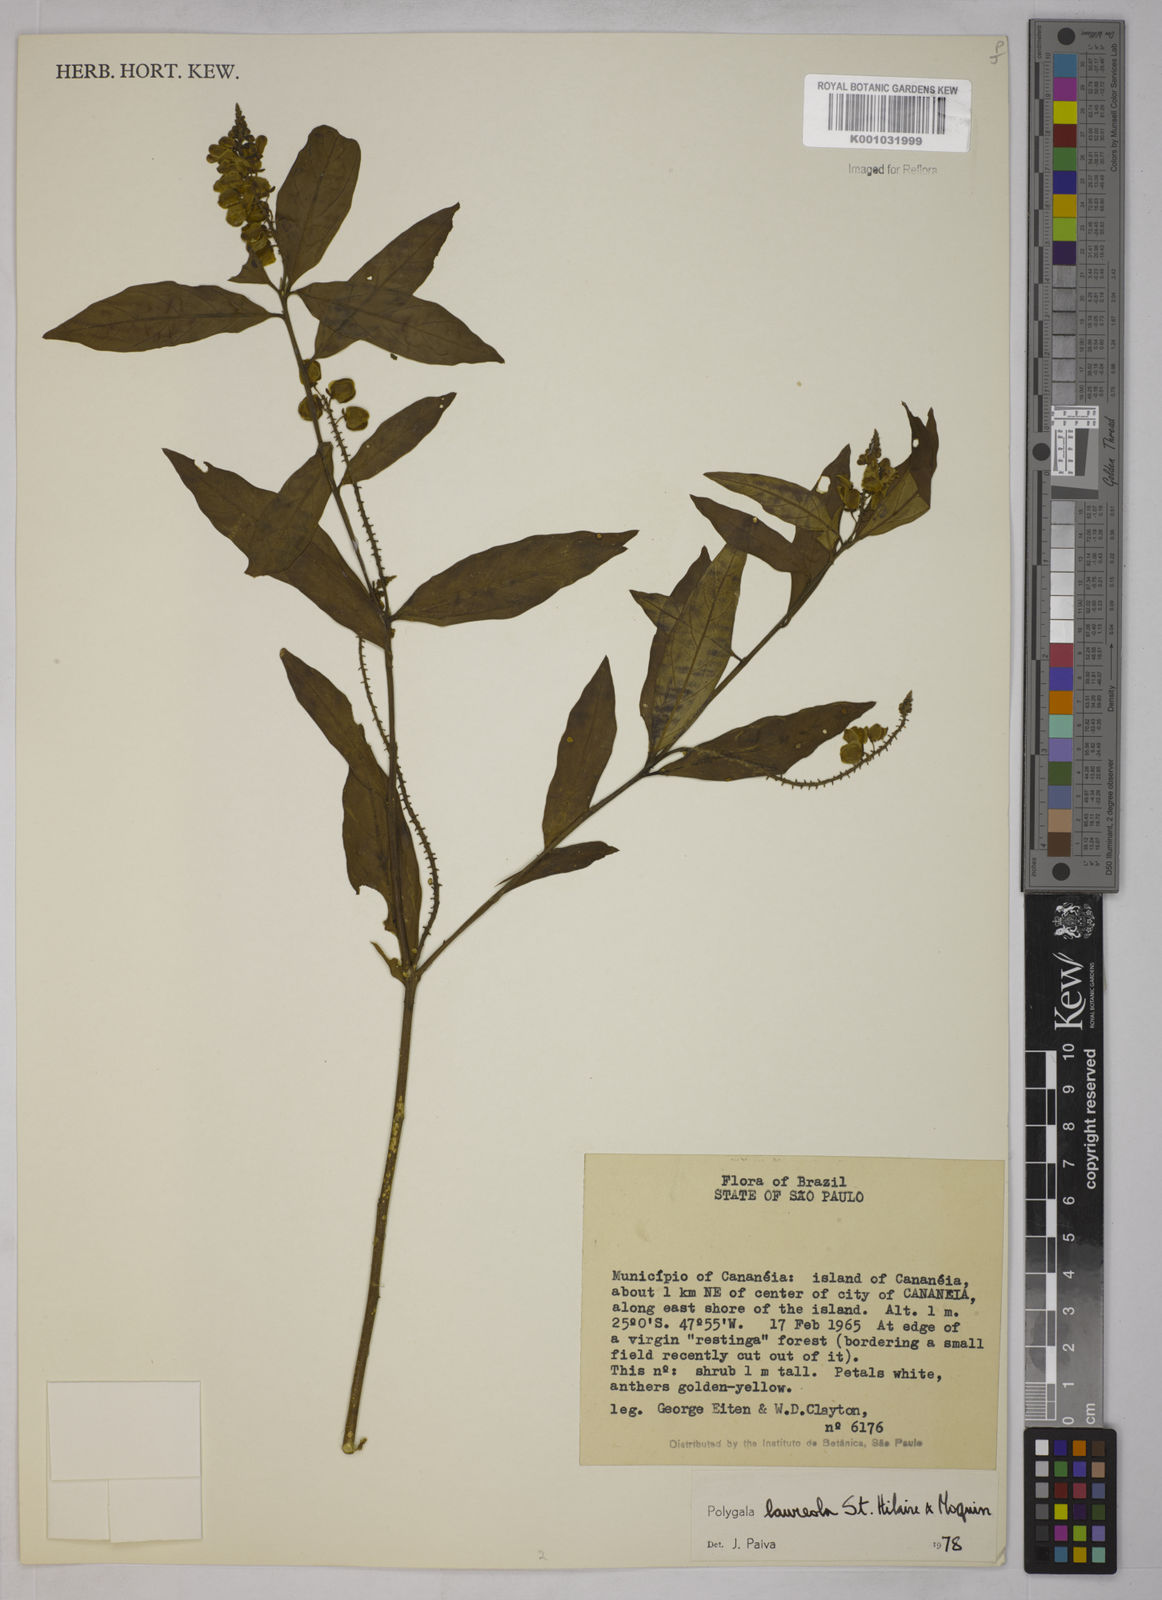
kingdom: Plantae
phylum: Tracheophyta
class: Magnoliopsida
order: Fabales
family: Polygalaceae
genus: Caamembeca
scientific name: Caamembeca salicifolia
